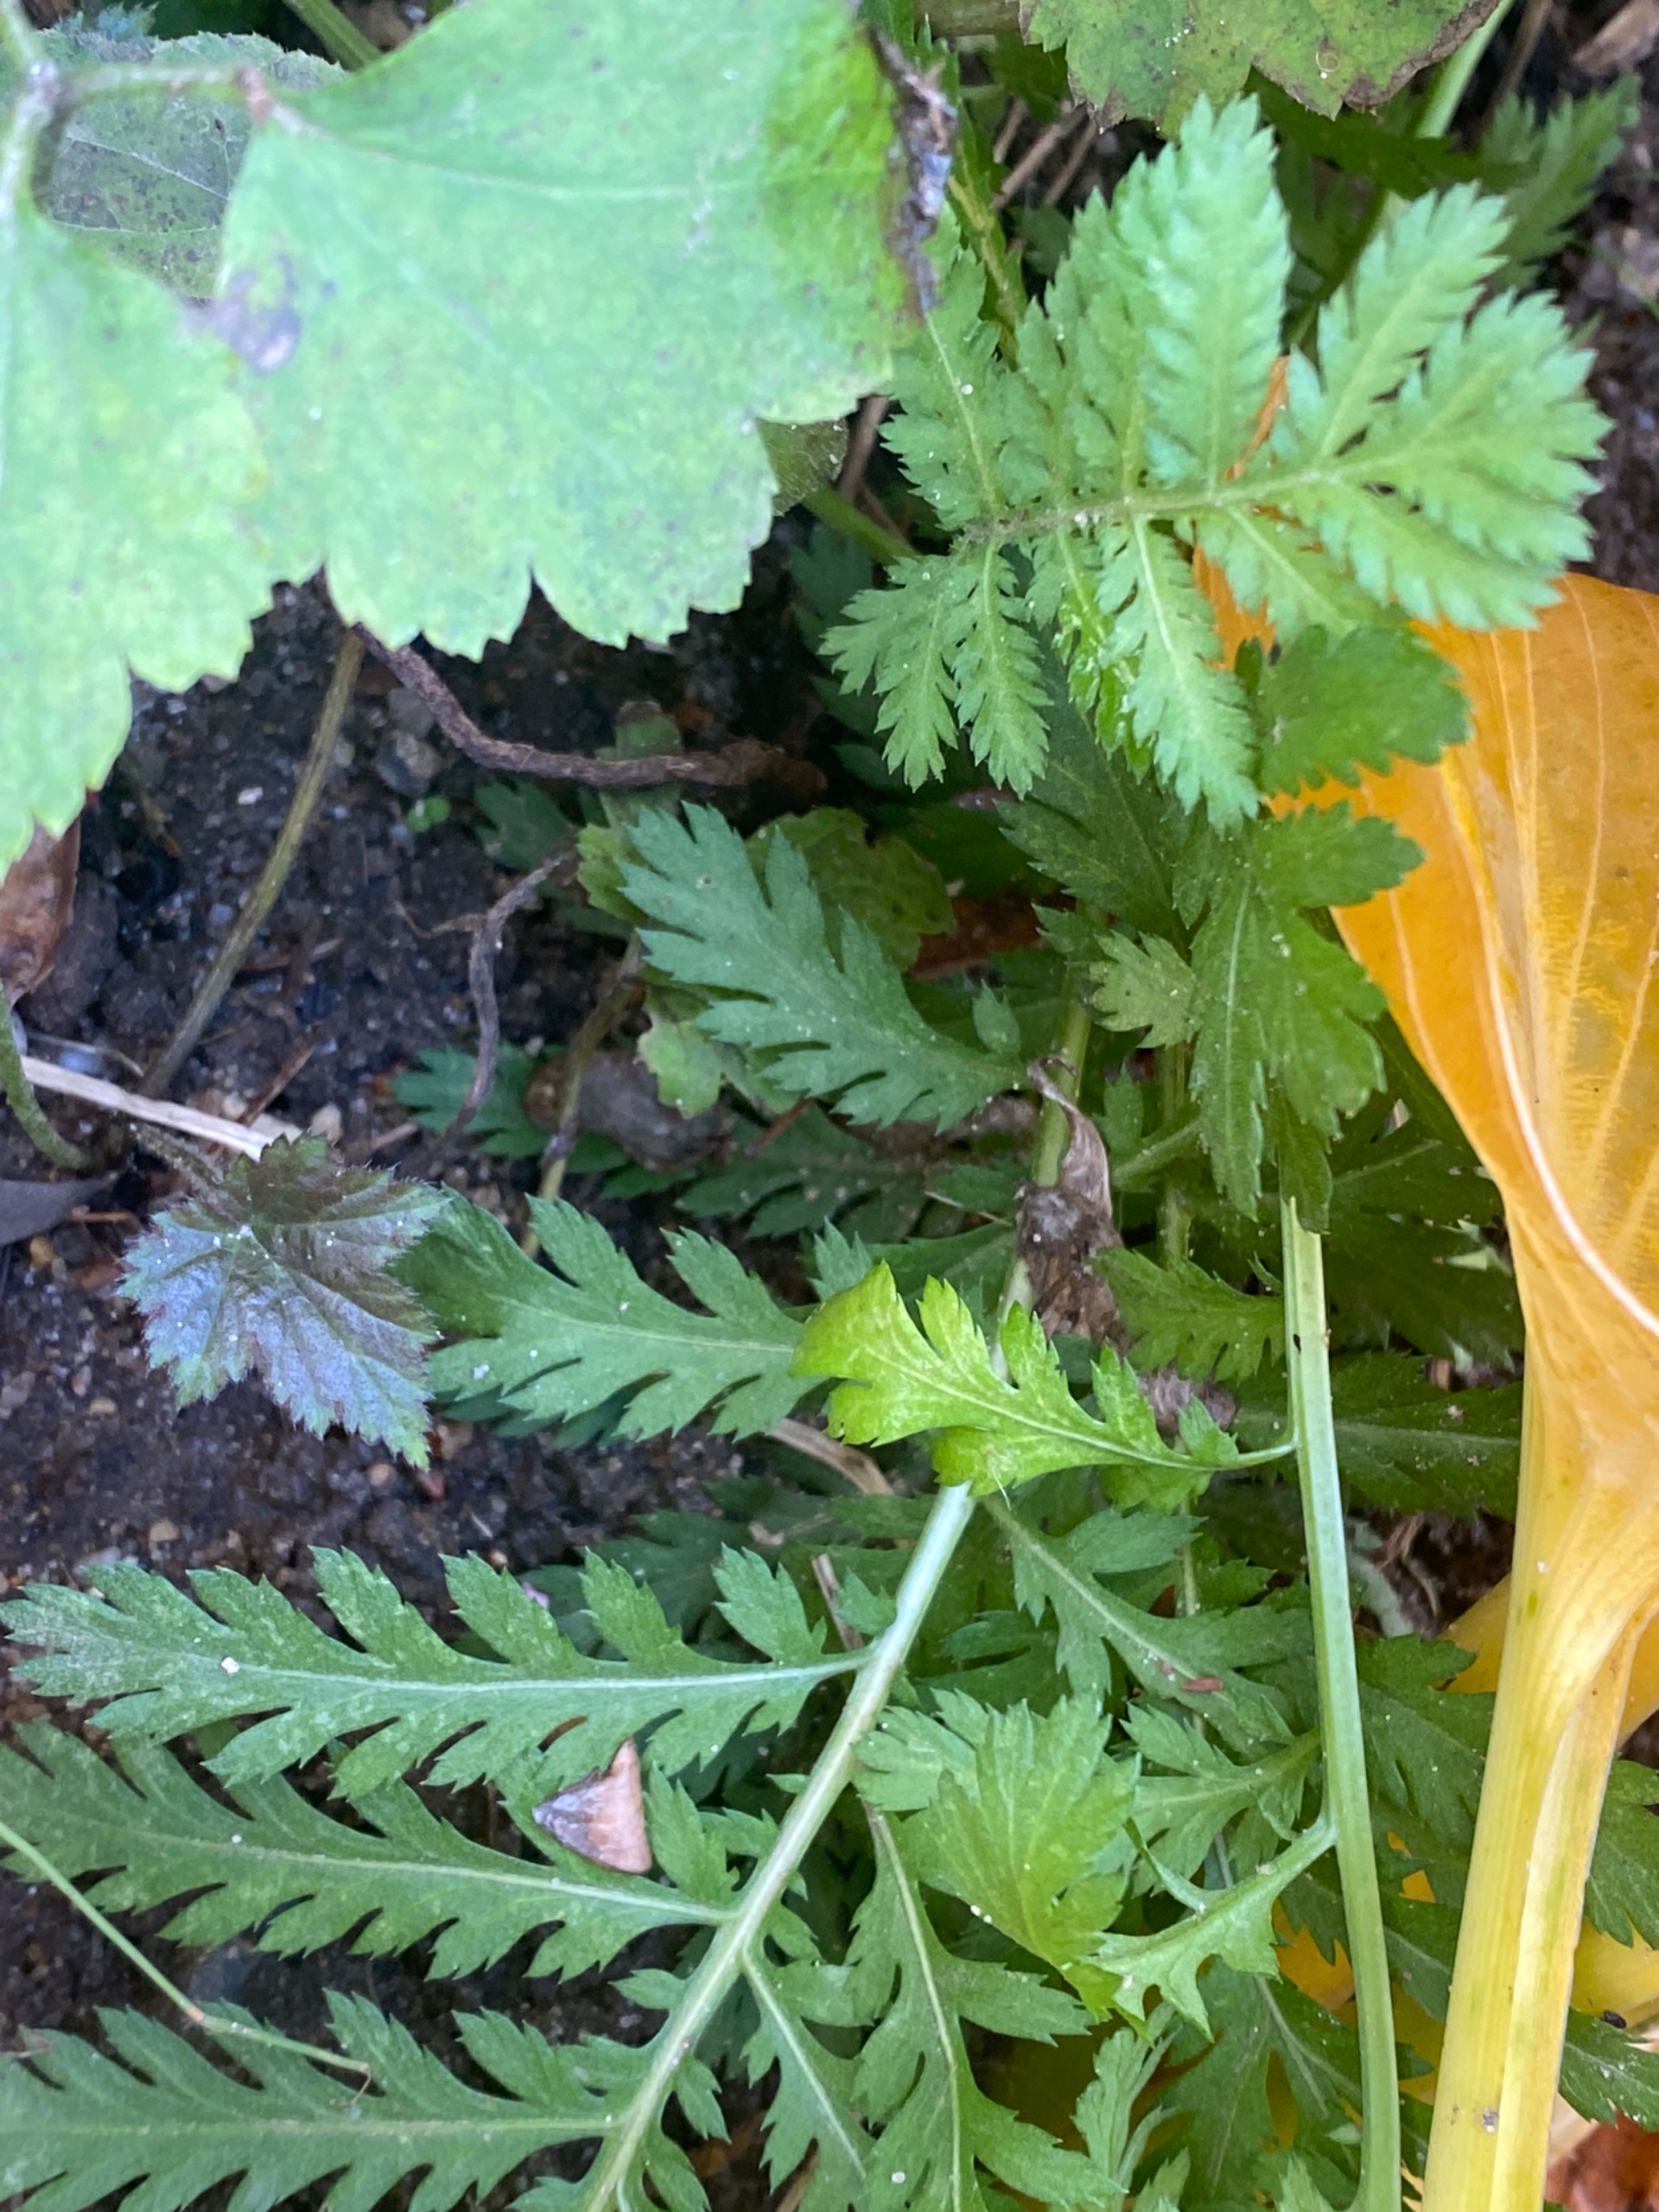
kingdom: Plantae
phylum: Tracheophyta
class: Magnoliopsida
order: Asterales
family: Asteraceae
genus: Tanacetum
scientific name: Tanacetum vulgare
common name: Rejnfan
